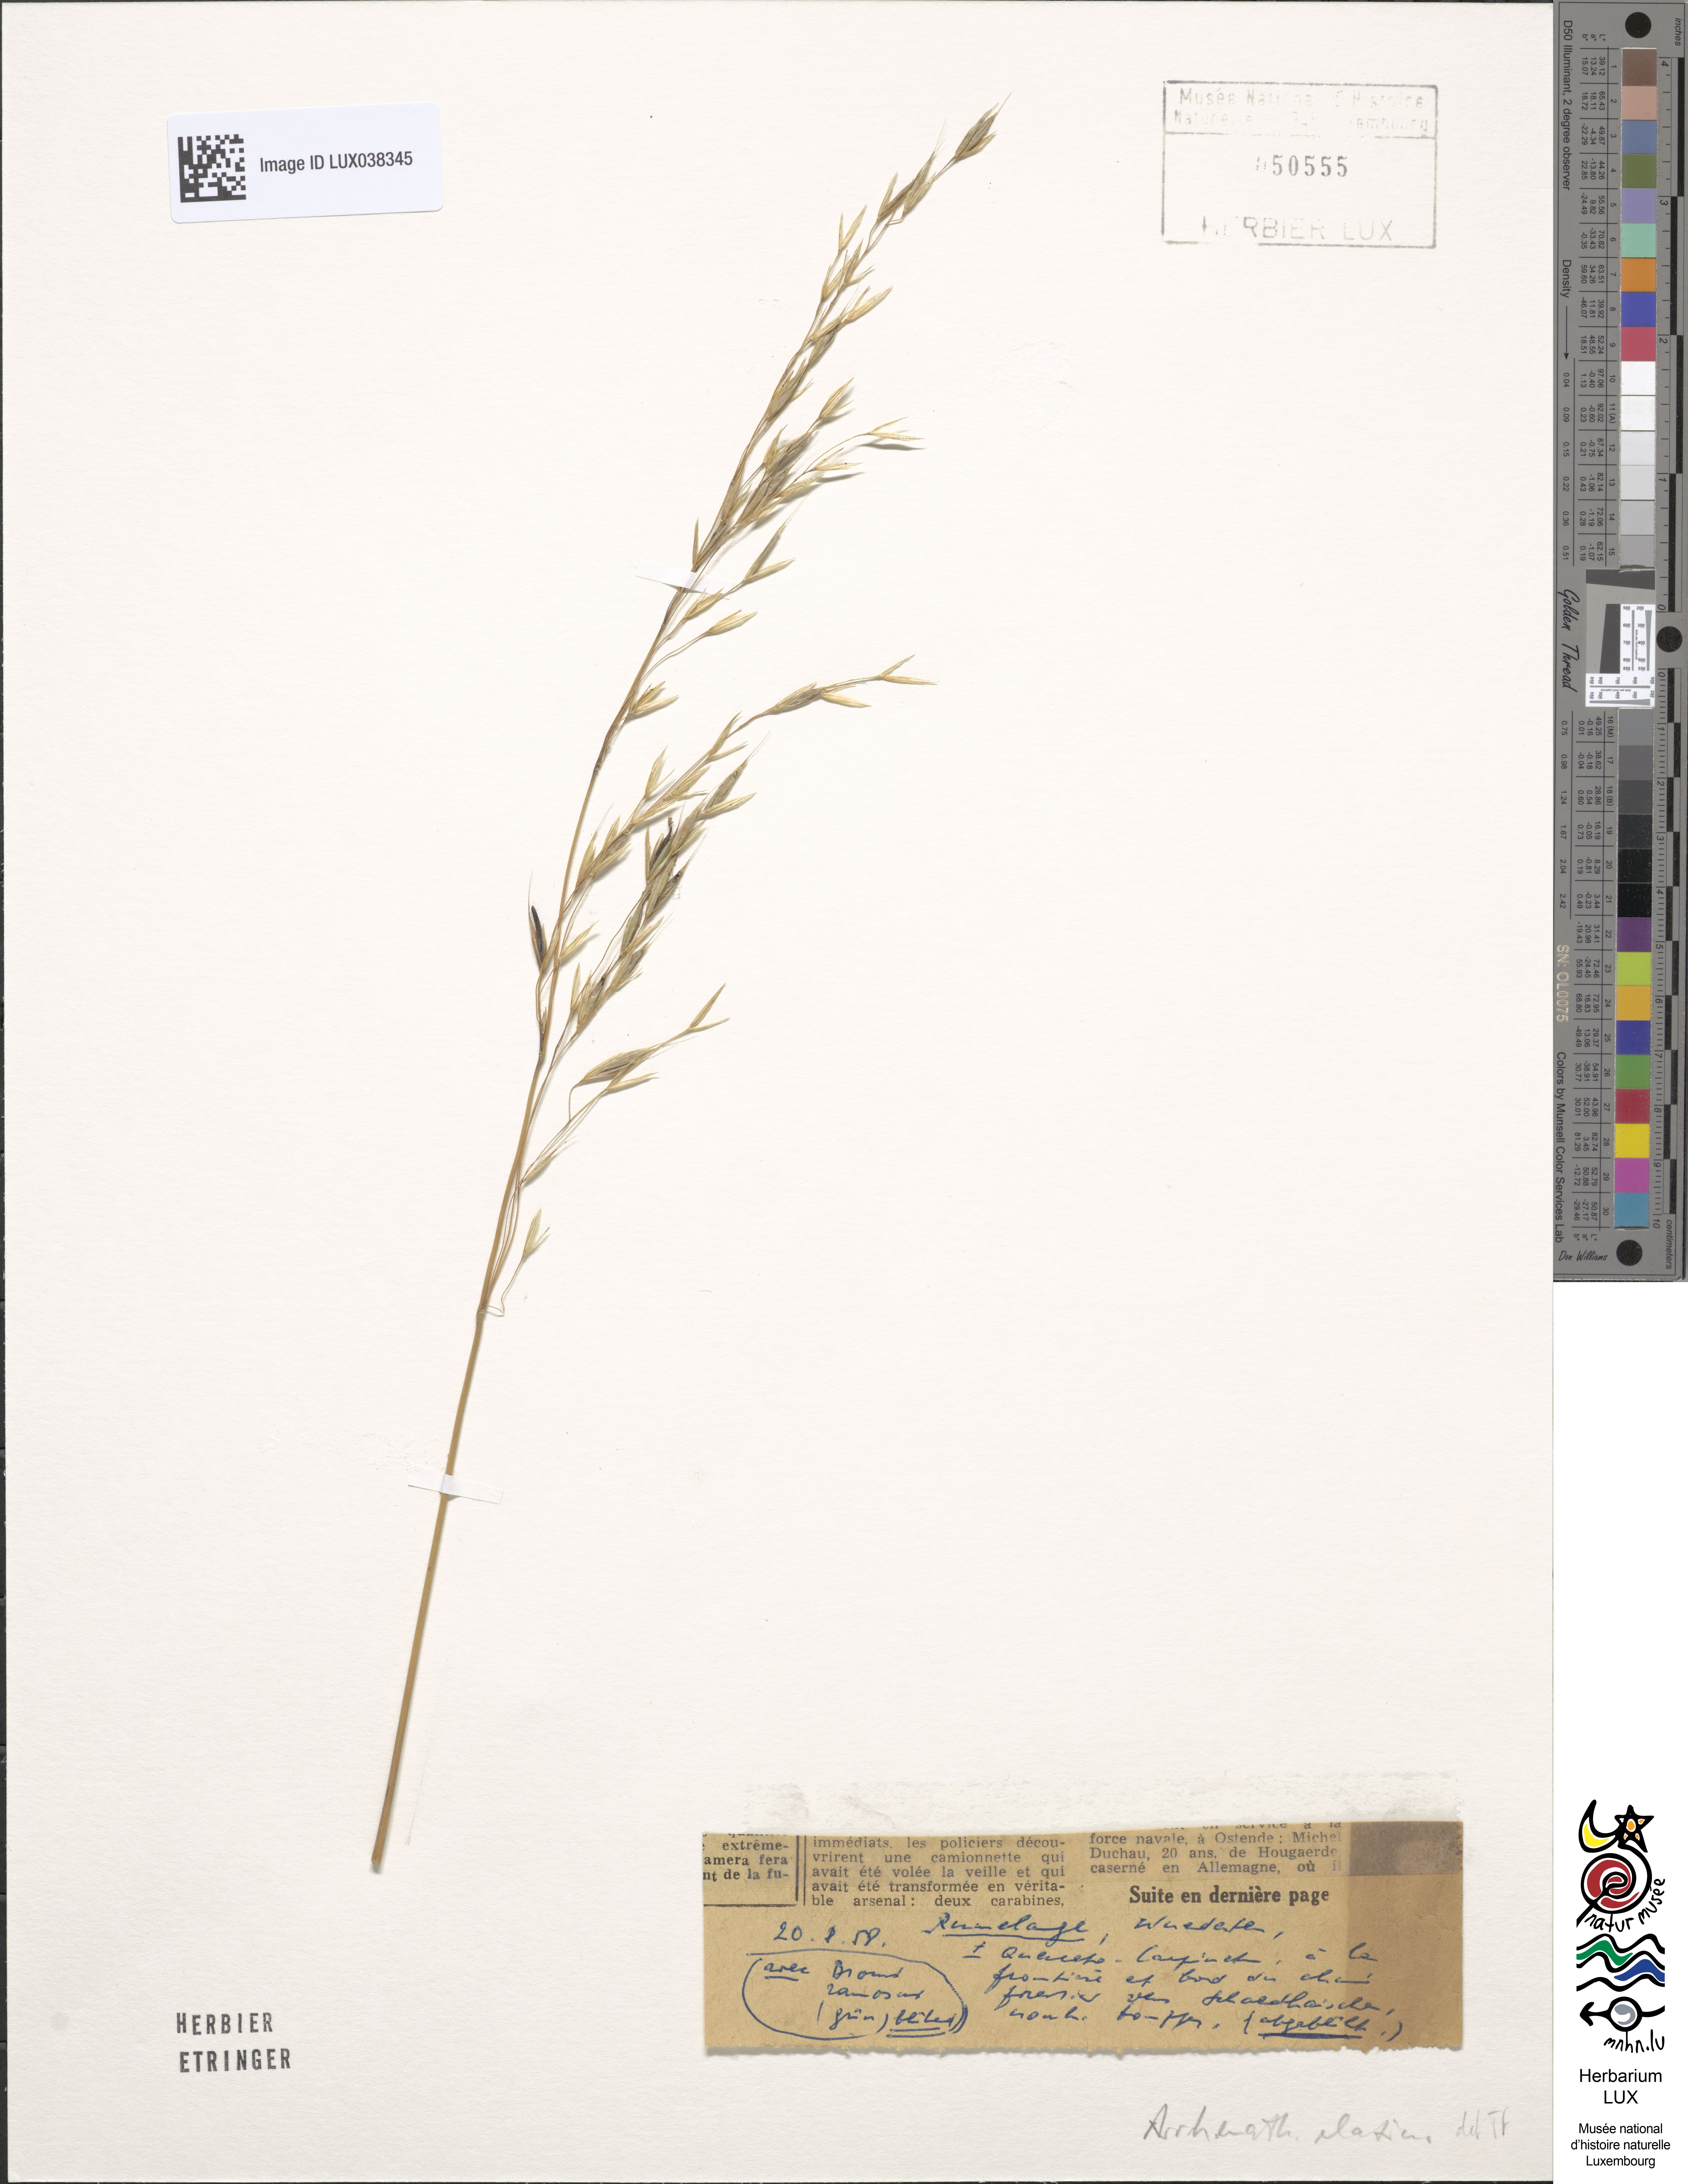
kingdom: Plantae
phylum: Tracheophyta
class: Liliopsida
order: Poales
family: Poaceae
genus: Arrhenatherum
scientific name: Arrhenatherum elatius
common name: Tall oatgrass
